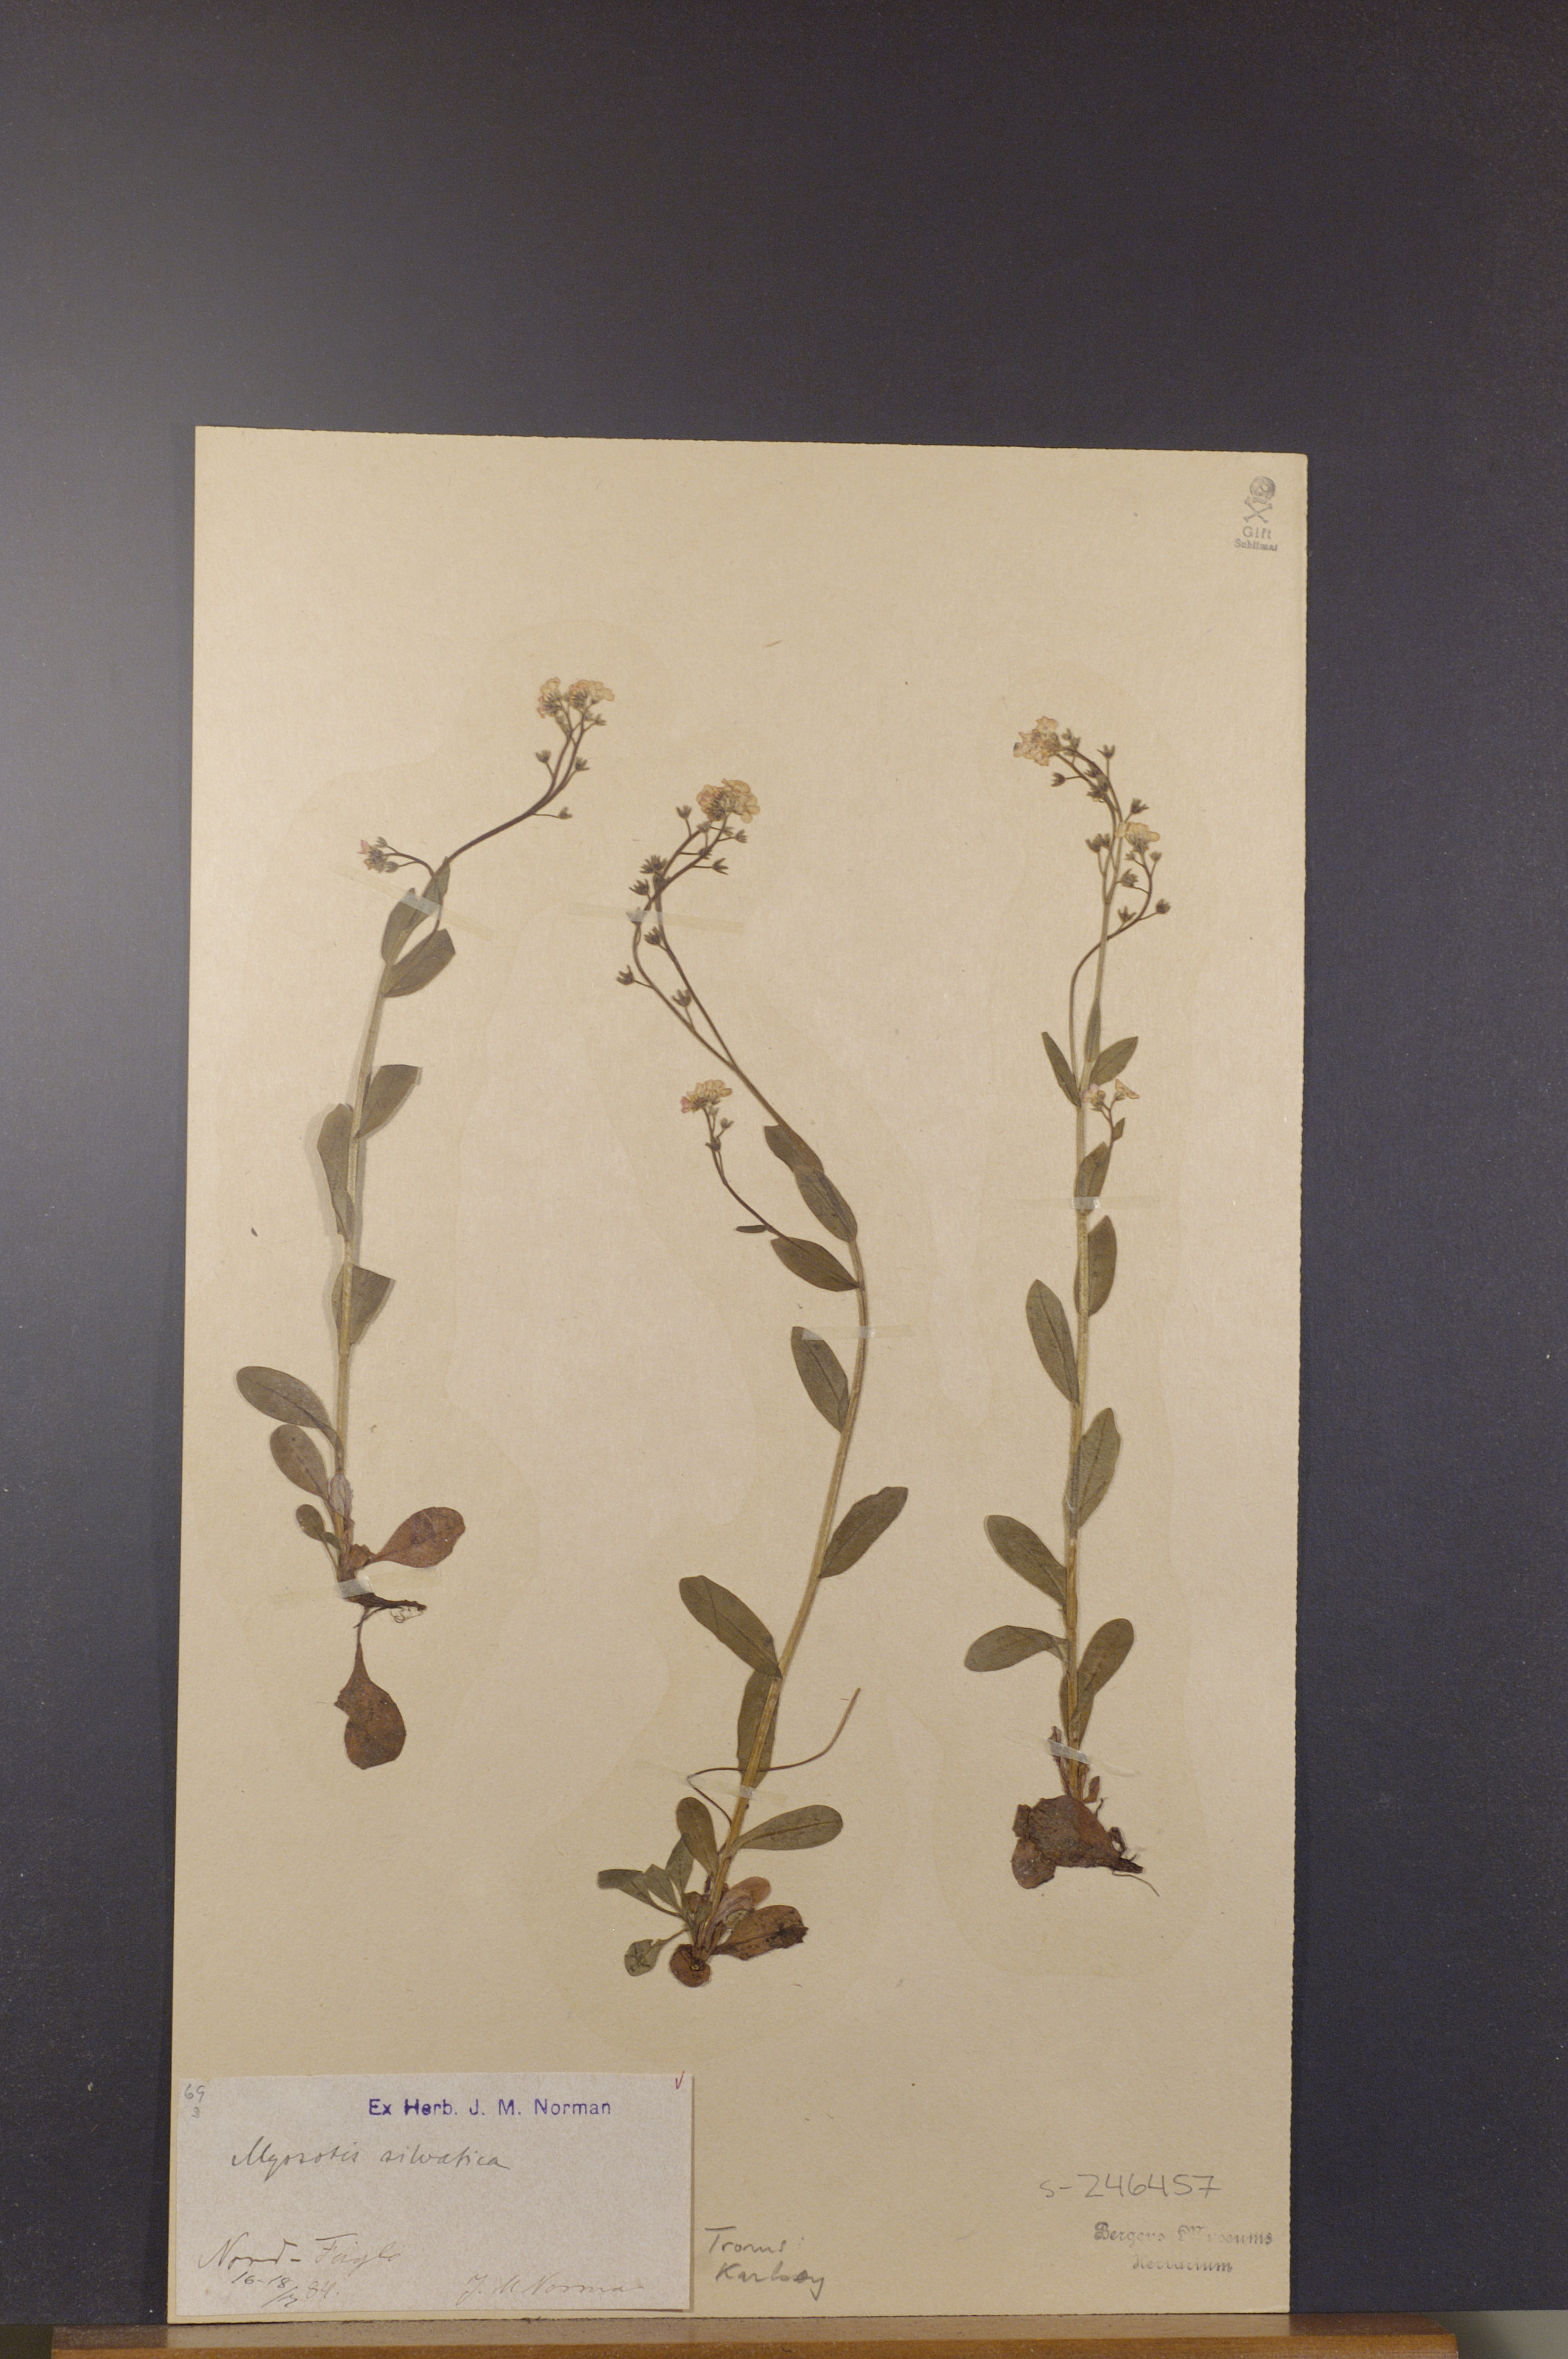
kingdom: Plantae
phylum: Tracheophyta
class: Magnoliopsida
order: Boraginales
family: Boraginaceae
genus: Myosotis
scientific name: Myosotis decumbens
